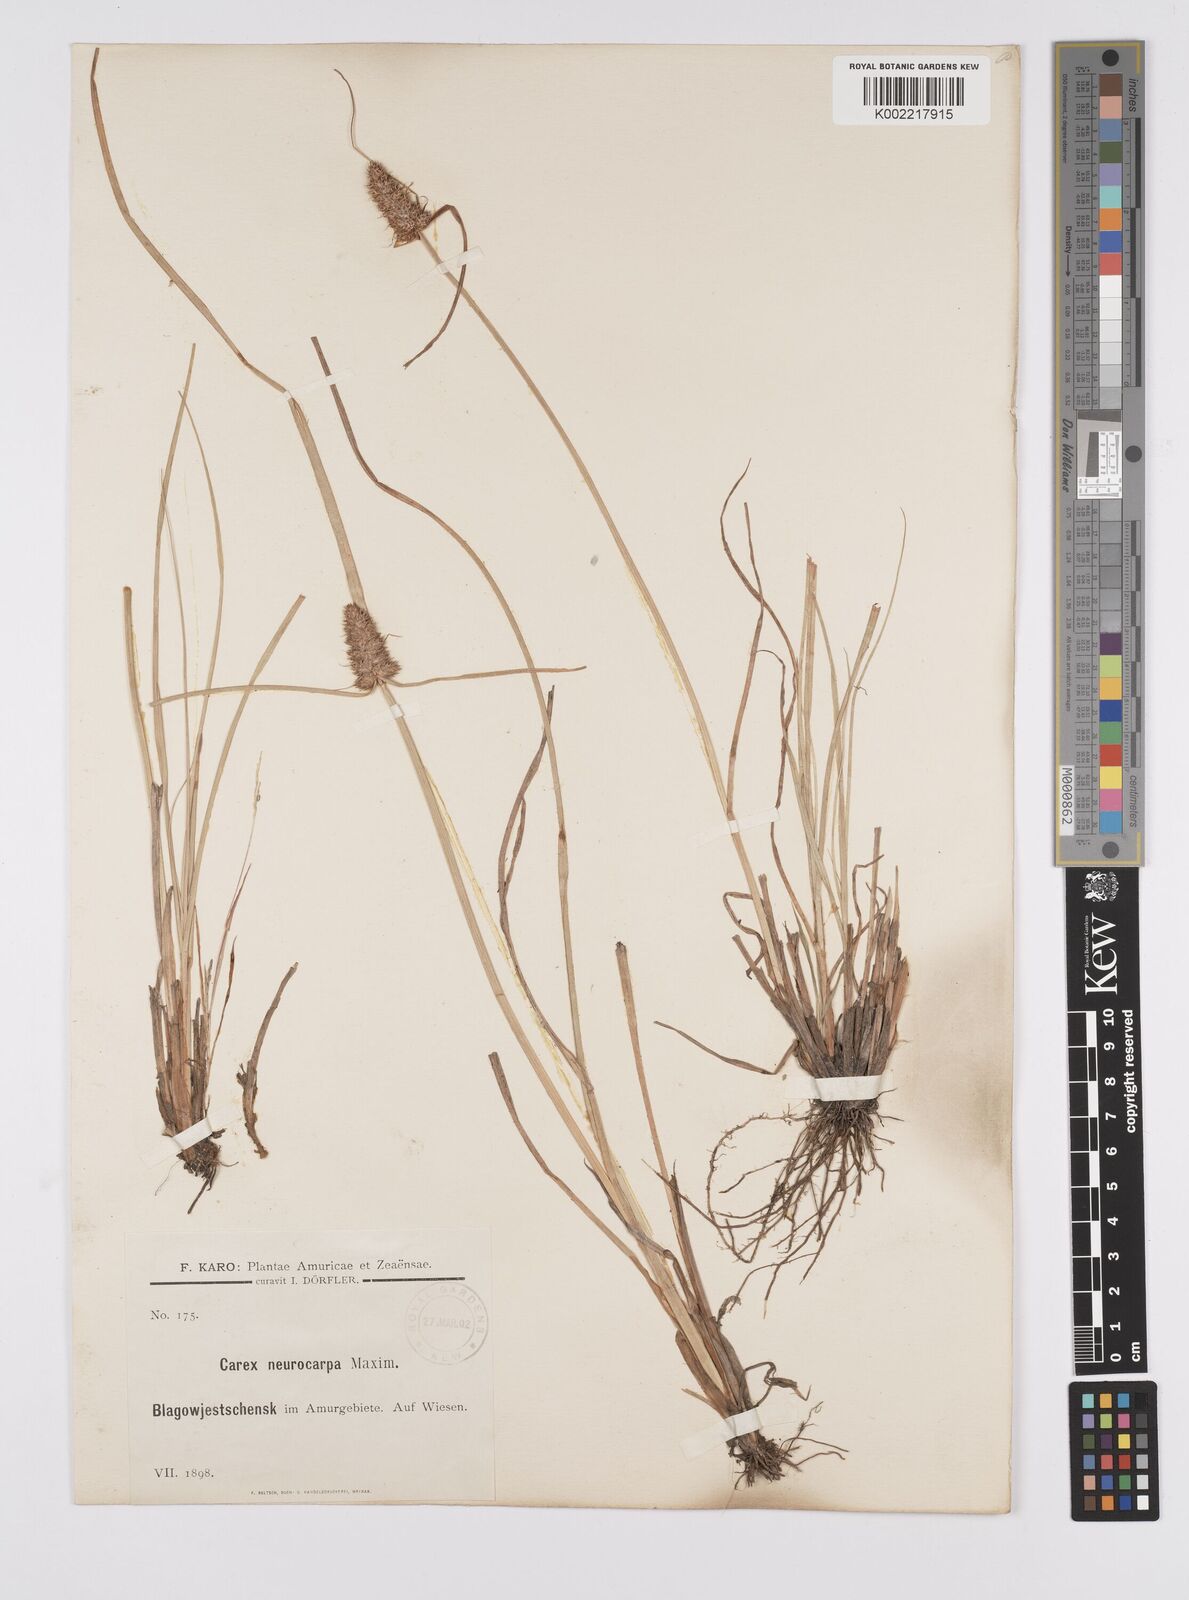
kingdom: Plantae
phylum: Tracheophyta
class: Liliopsida
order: Poales
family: Cyperaceae
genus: Carex
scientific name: Carex neurocarpa
